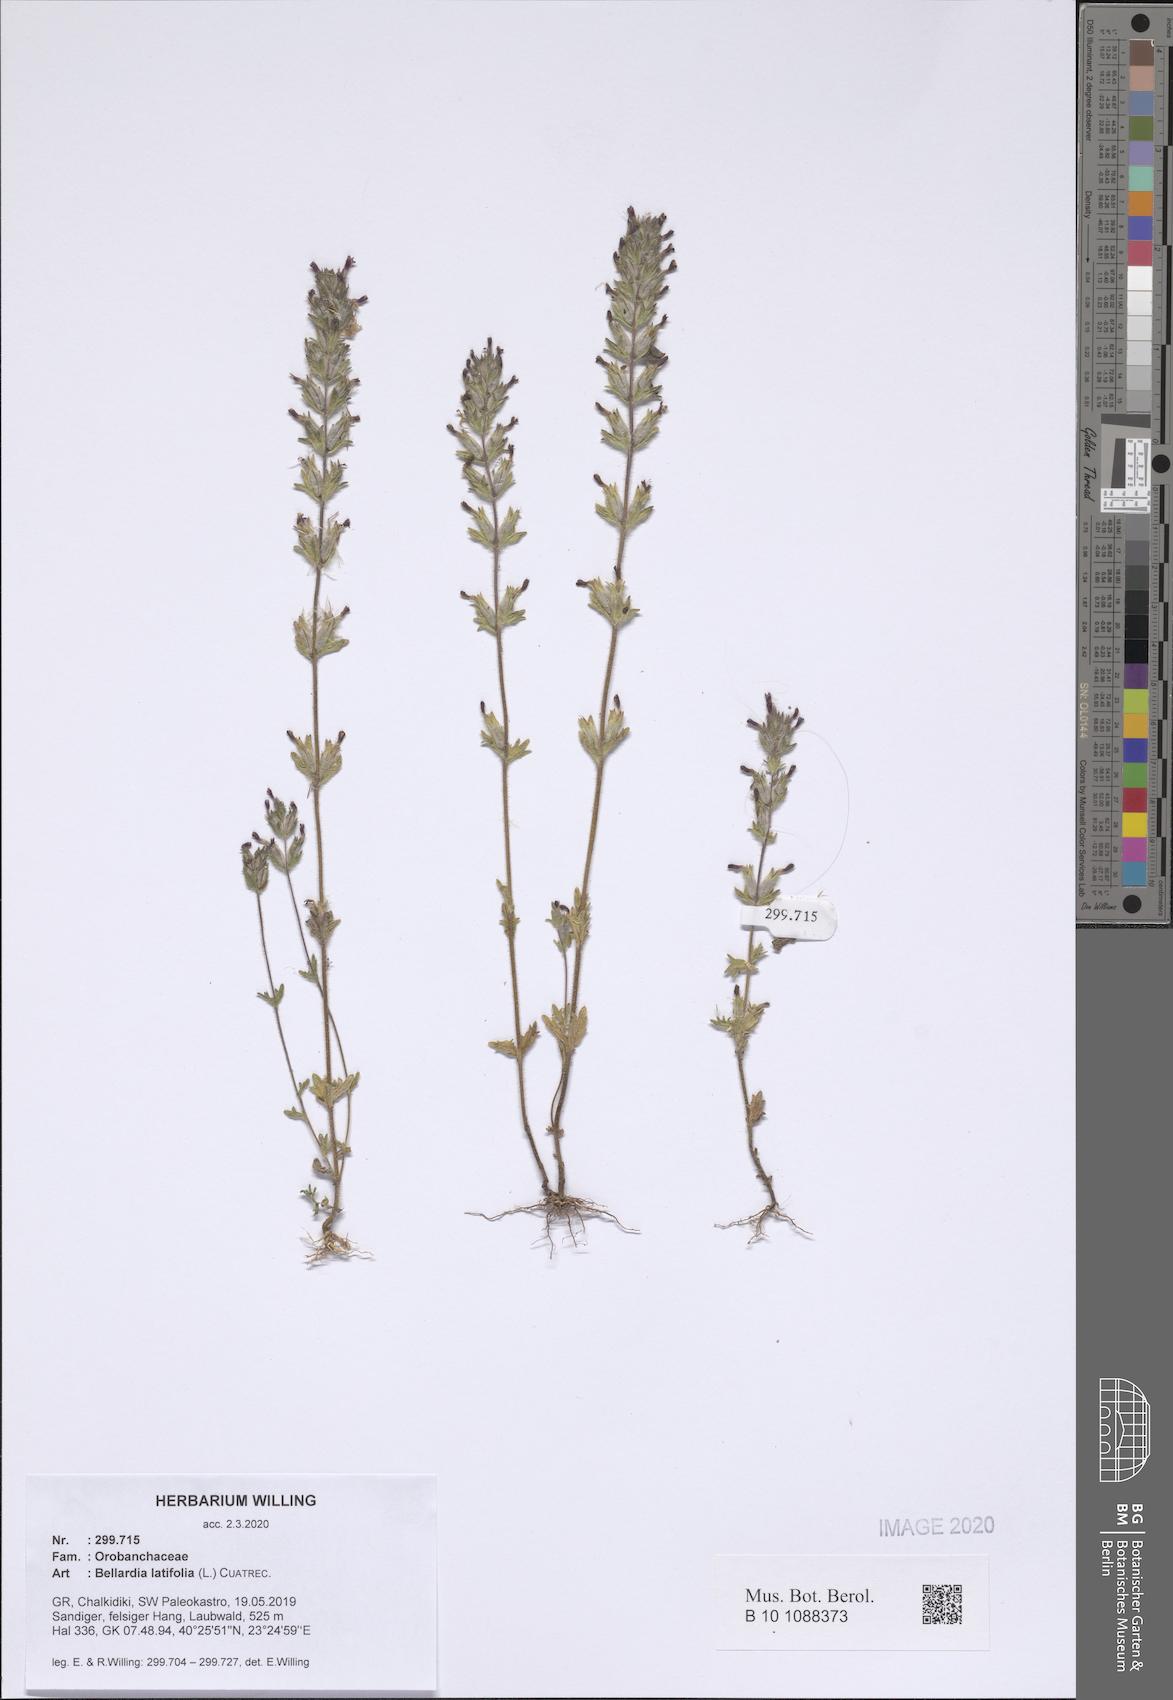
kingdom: Plantae
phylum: Tracheophyta
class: Magnoliopsida
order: Lamiales
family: Orobanchaceae
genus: Parentucellia
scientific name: Parentucellia latifolia
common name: Broadleaf glandweed
